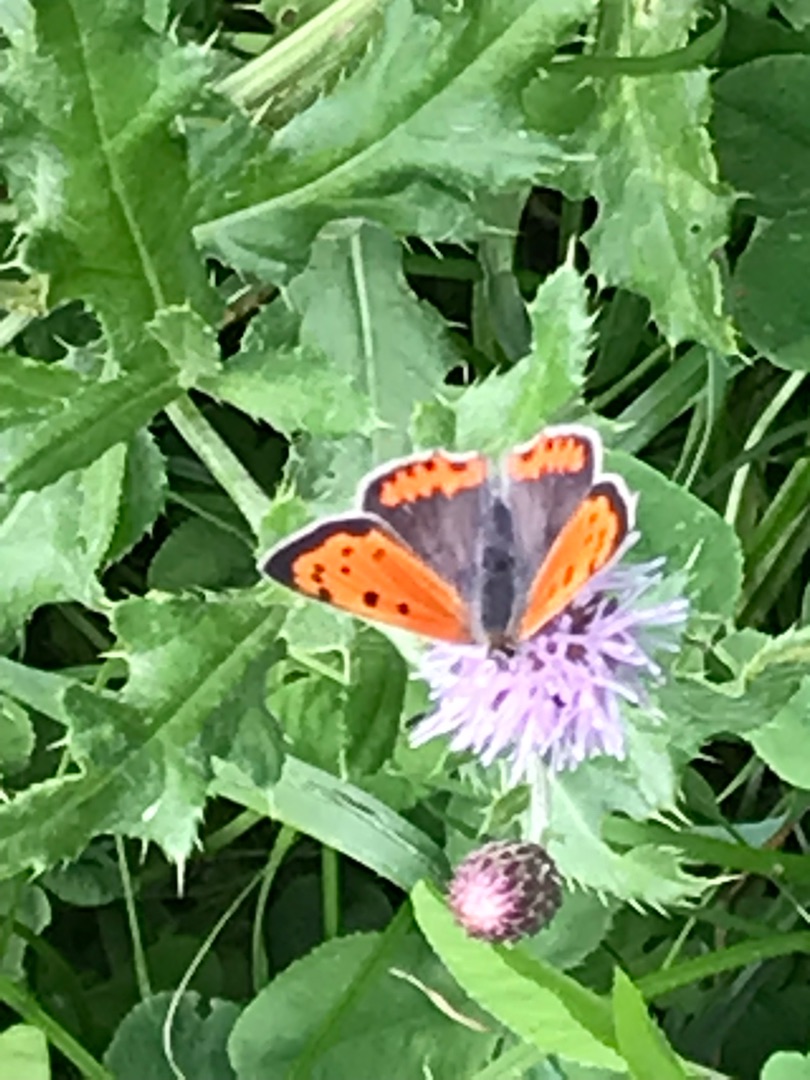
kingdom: Animalia
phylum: Arthropoda
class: Insecta
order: Lepidoptera
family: Lycaenidae
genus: Lycaena
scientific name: Lycaena phlaeas
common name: Lille ildfugl
